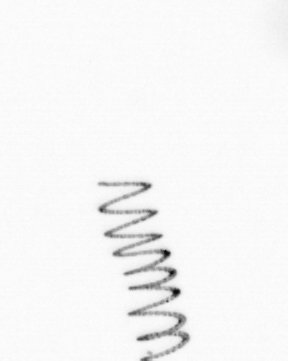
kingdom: Chromista
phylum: Ochrophyta
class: Bacillariophyceae
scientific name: Bacillariophyceae
